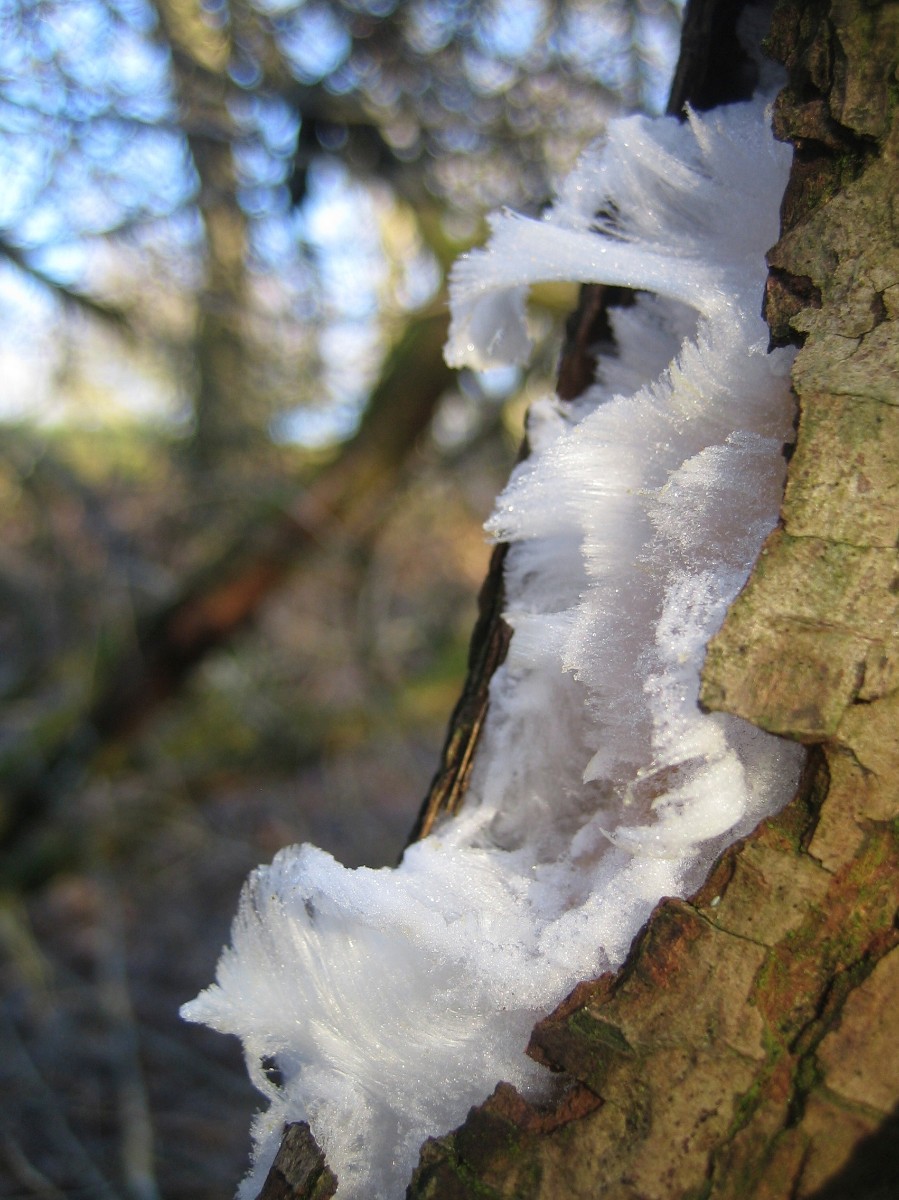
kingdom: Fungi
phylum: Basidiomycota
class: Tremellomycetes
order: Tremellales
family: Exidiaceae
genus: Exidiopsis
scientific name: Exidiopsis effusa
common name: smuk bævrehinde
